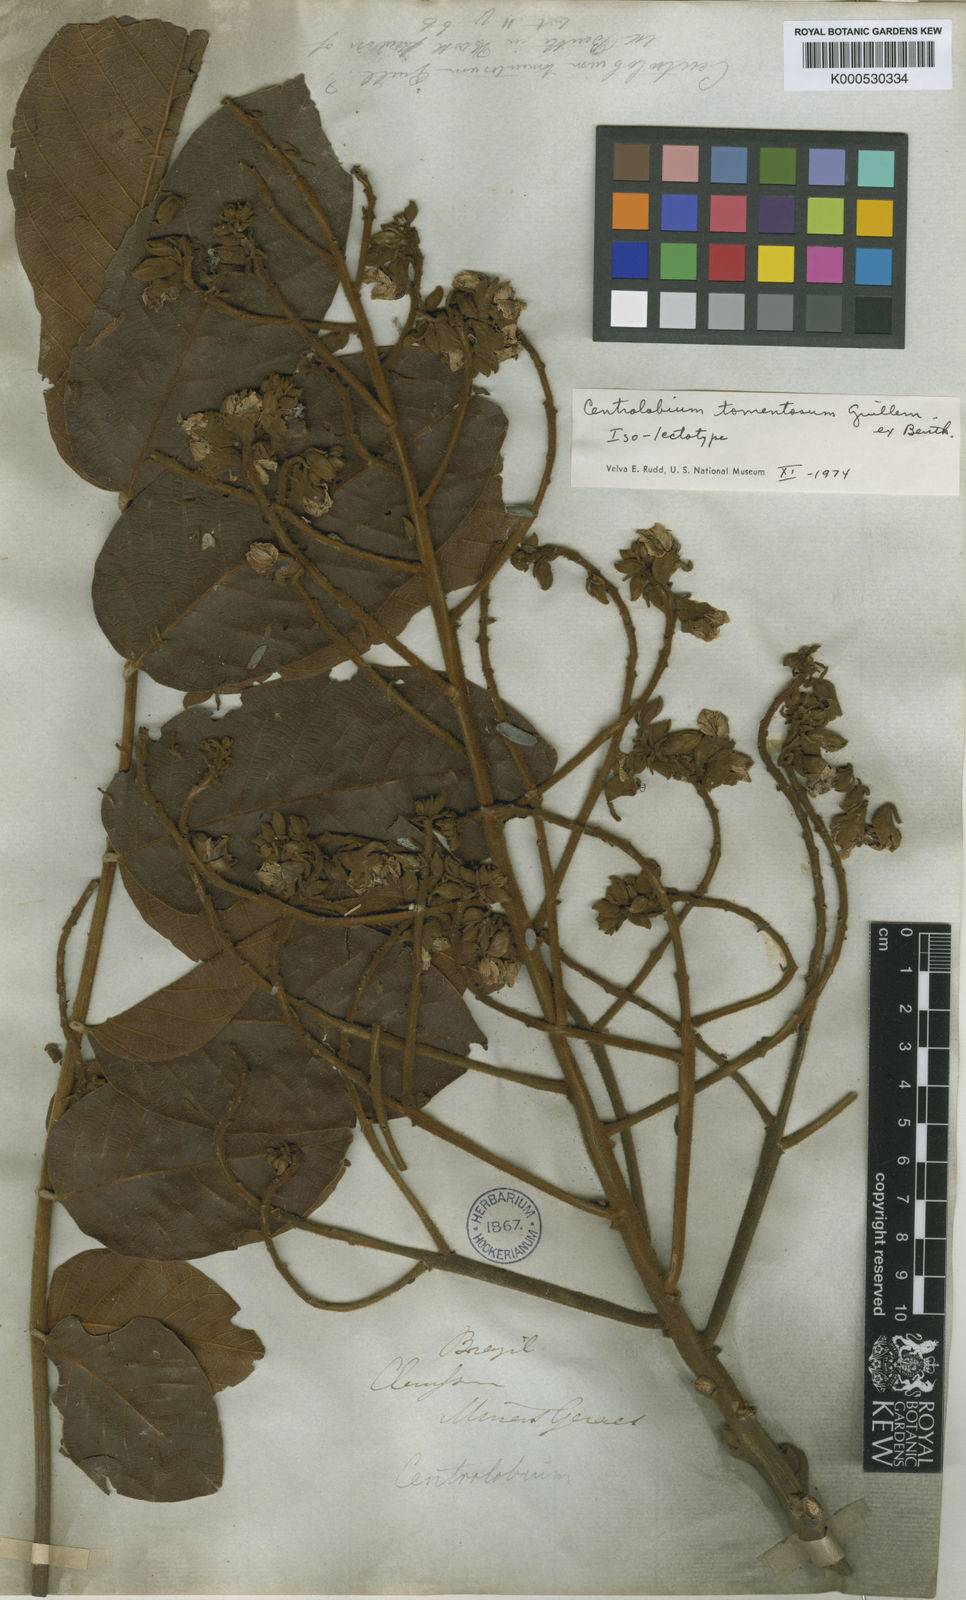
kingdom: Plantae
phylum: Tracheophyta
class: Magnoliopsida
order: Fabales
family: Fabaceae
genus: Centrolobium
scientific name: Centrolobium tomentosum
